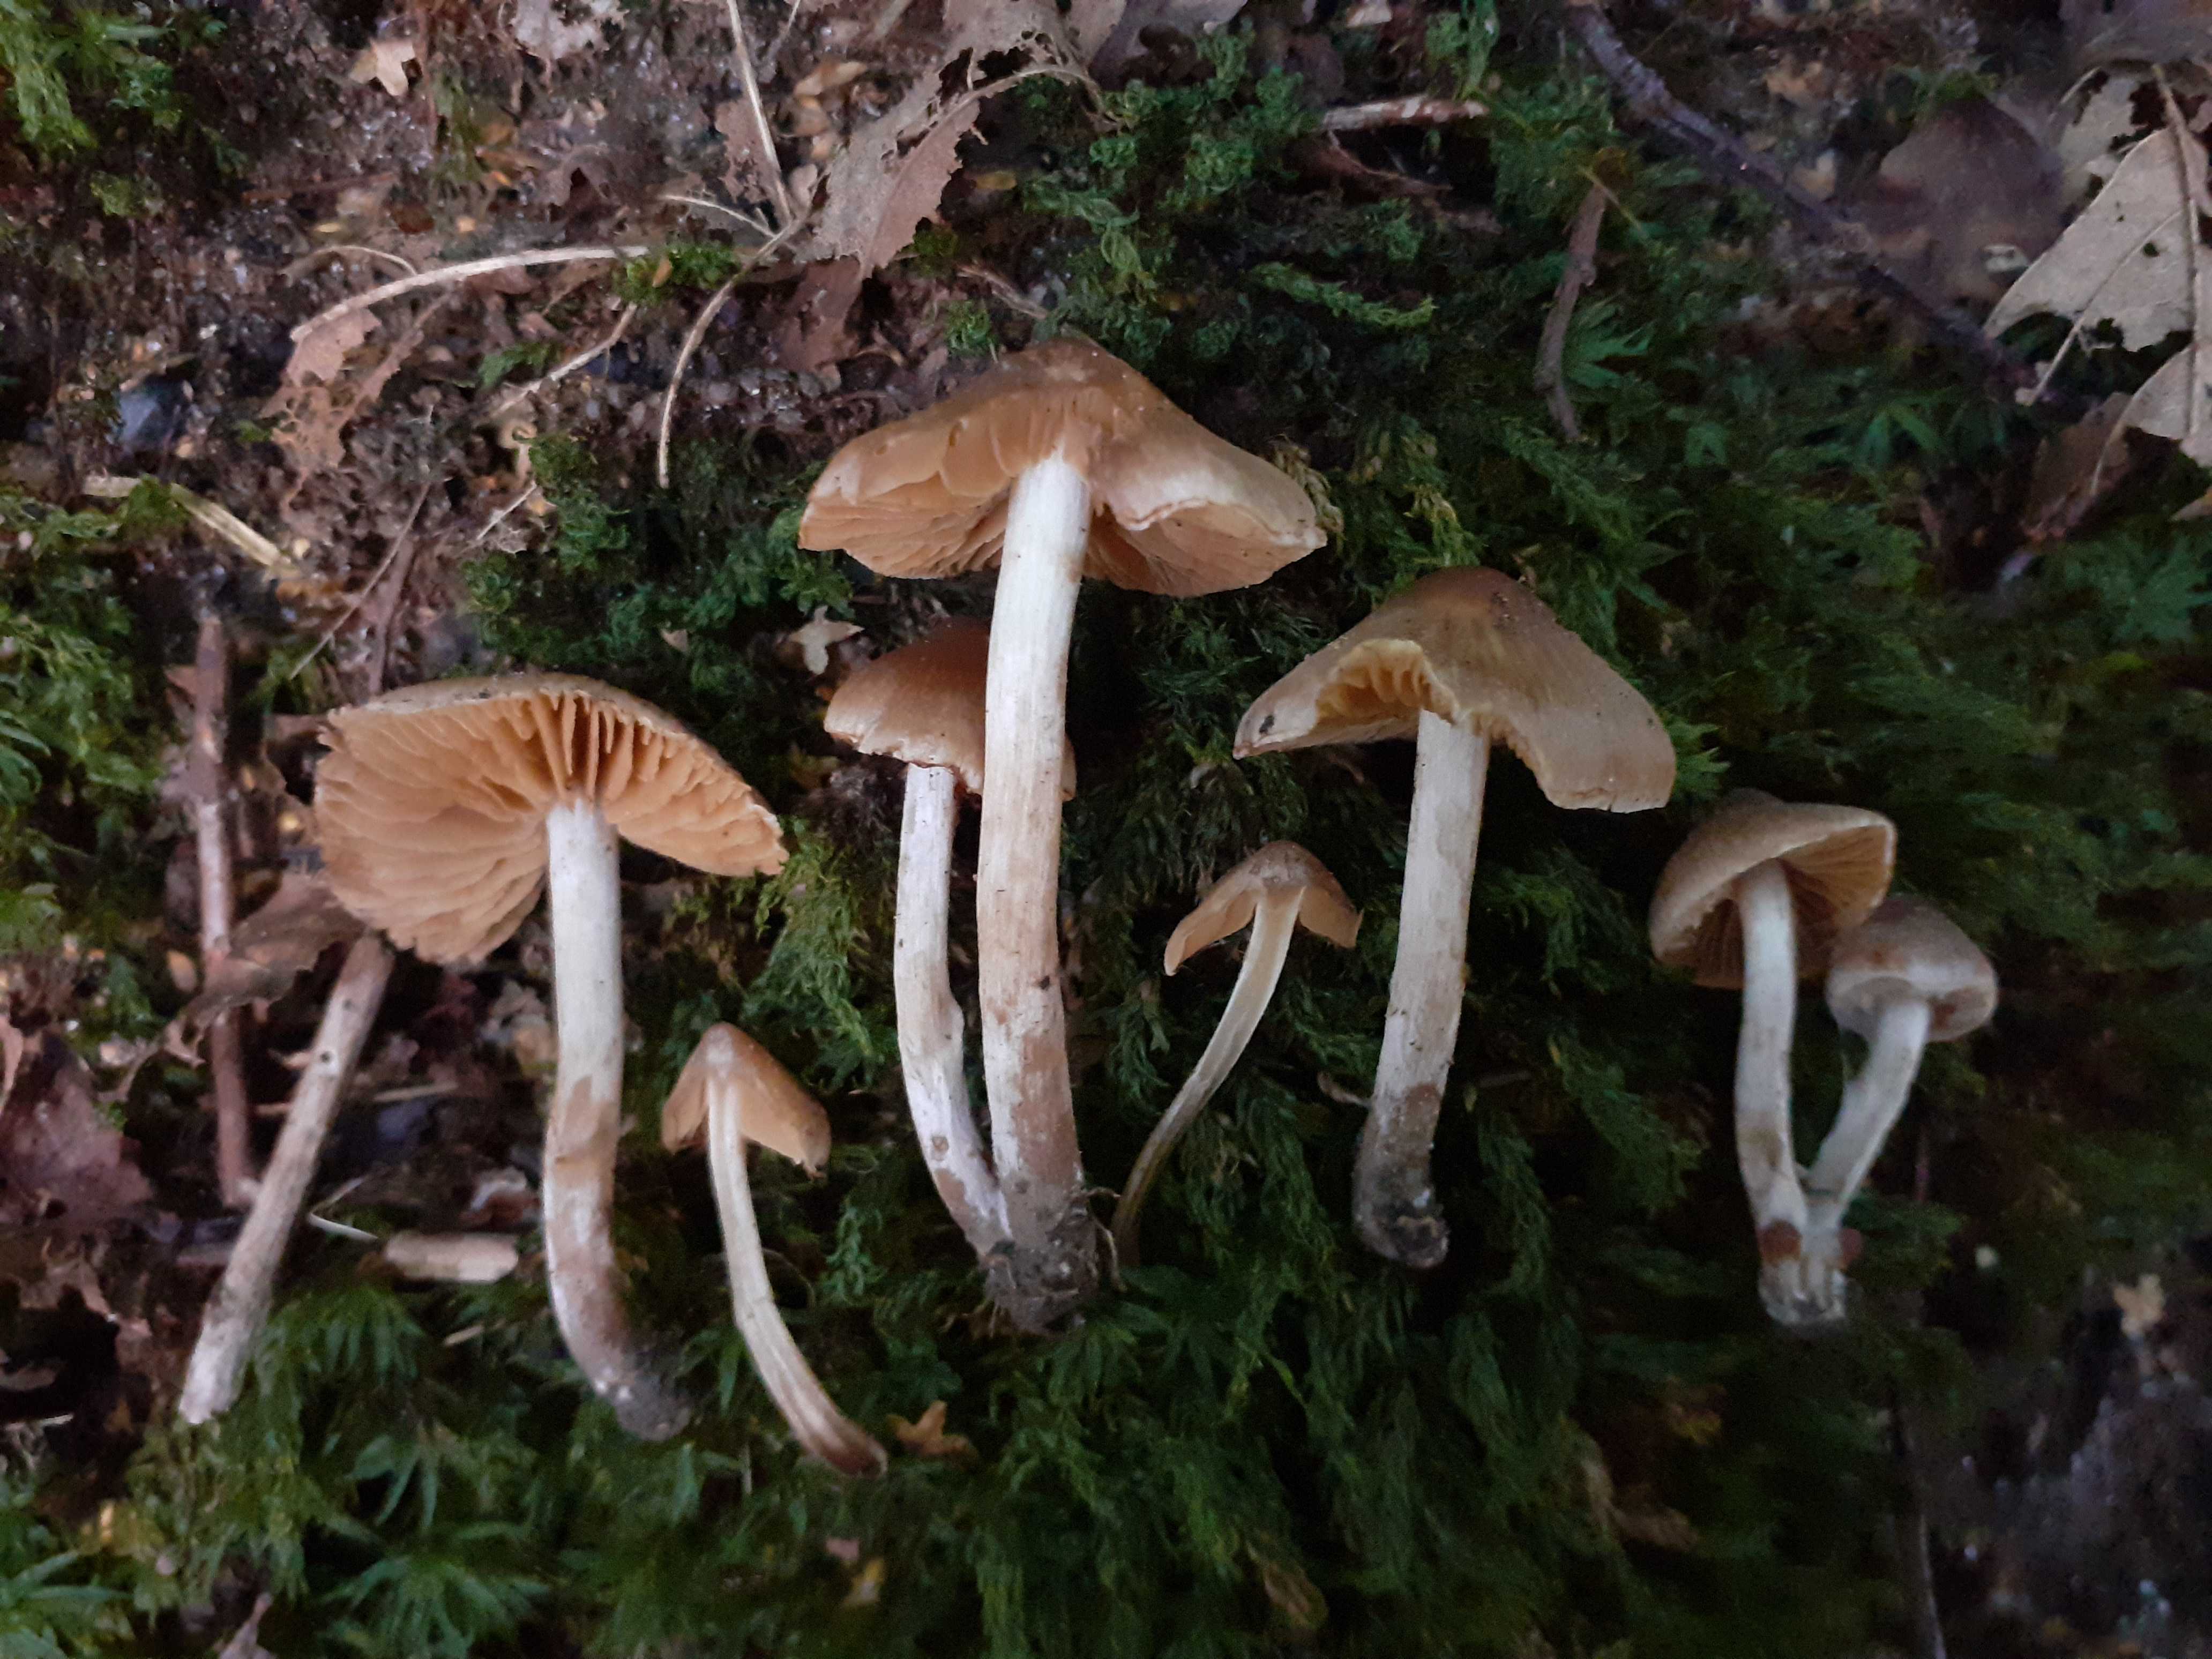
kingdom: Fungi
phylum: Basidiomycota
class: Agaricomycetes
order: Agaricales
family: Cortinariaceae
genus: Cortinarius
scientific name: Cortinarius incisior
